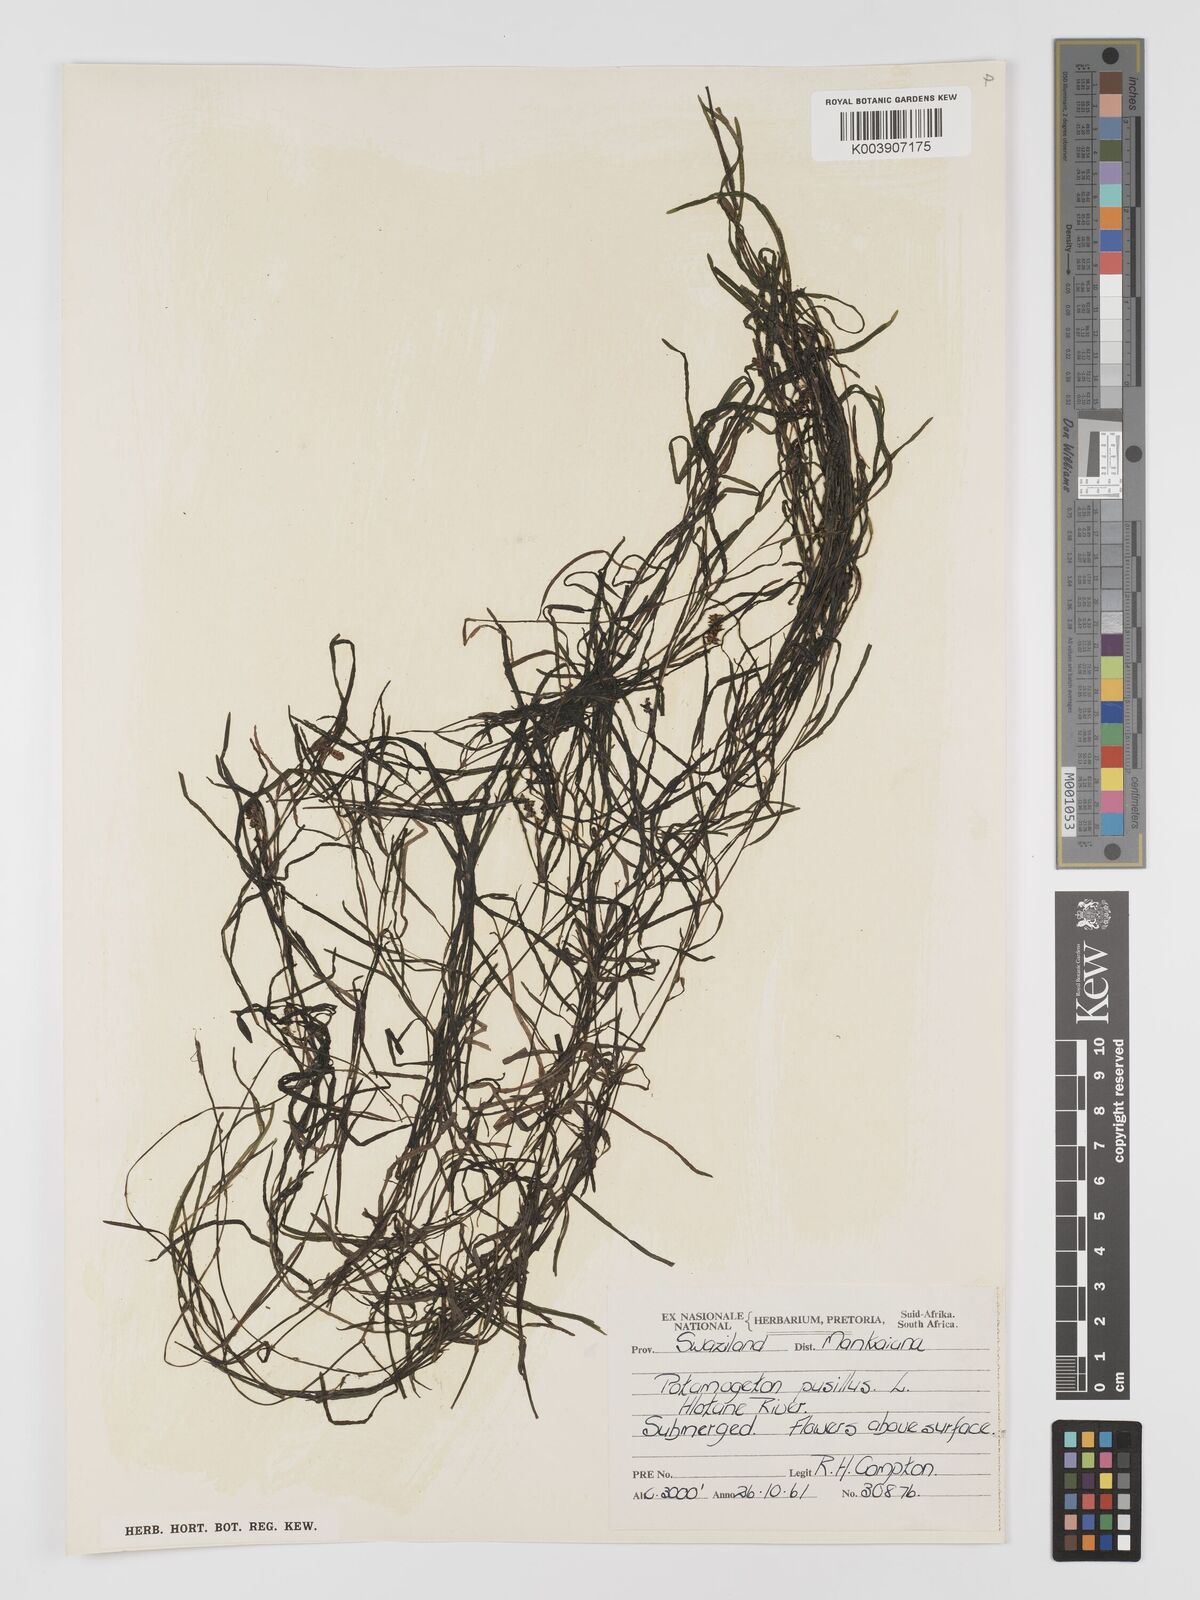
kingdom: Plantae
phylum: Tracheophyta
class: Liliopsida
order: Alismatales
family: Potamogetonaceae
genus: Potamogeton
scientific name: Potamogeton pusillus
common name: Lesser pondweed
